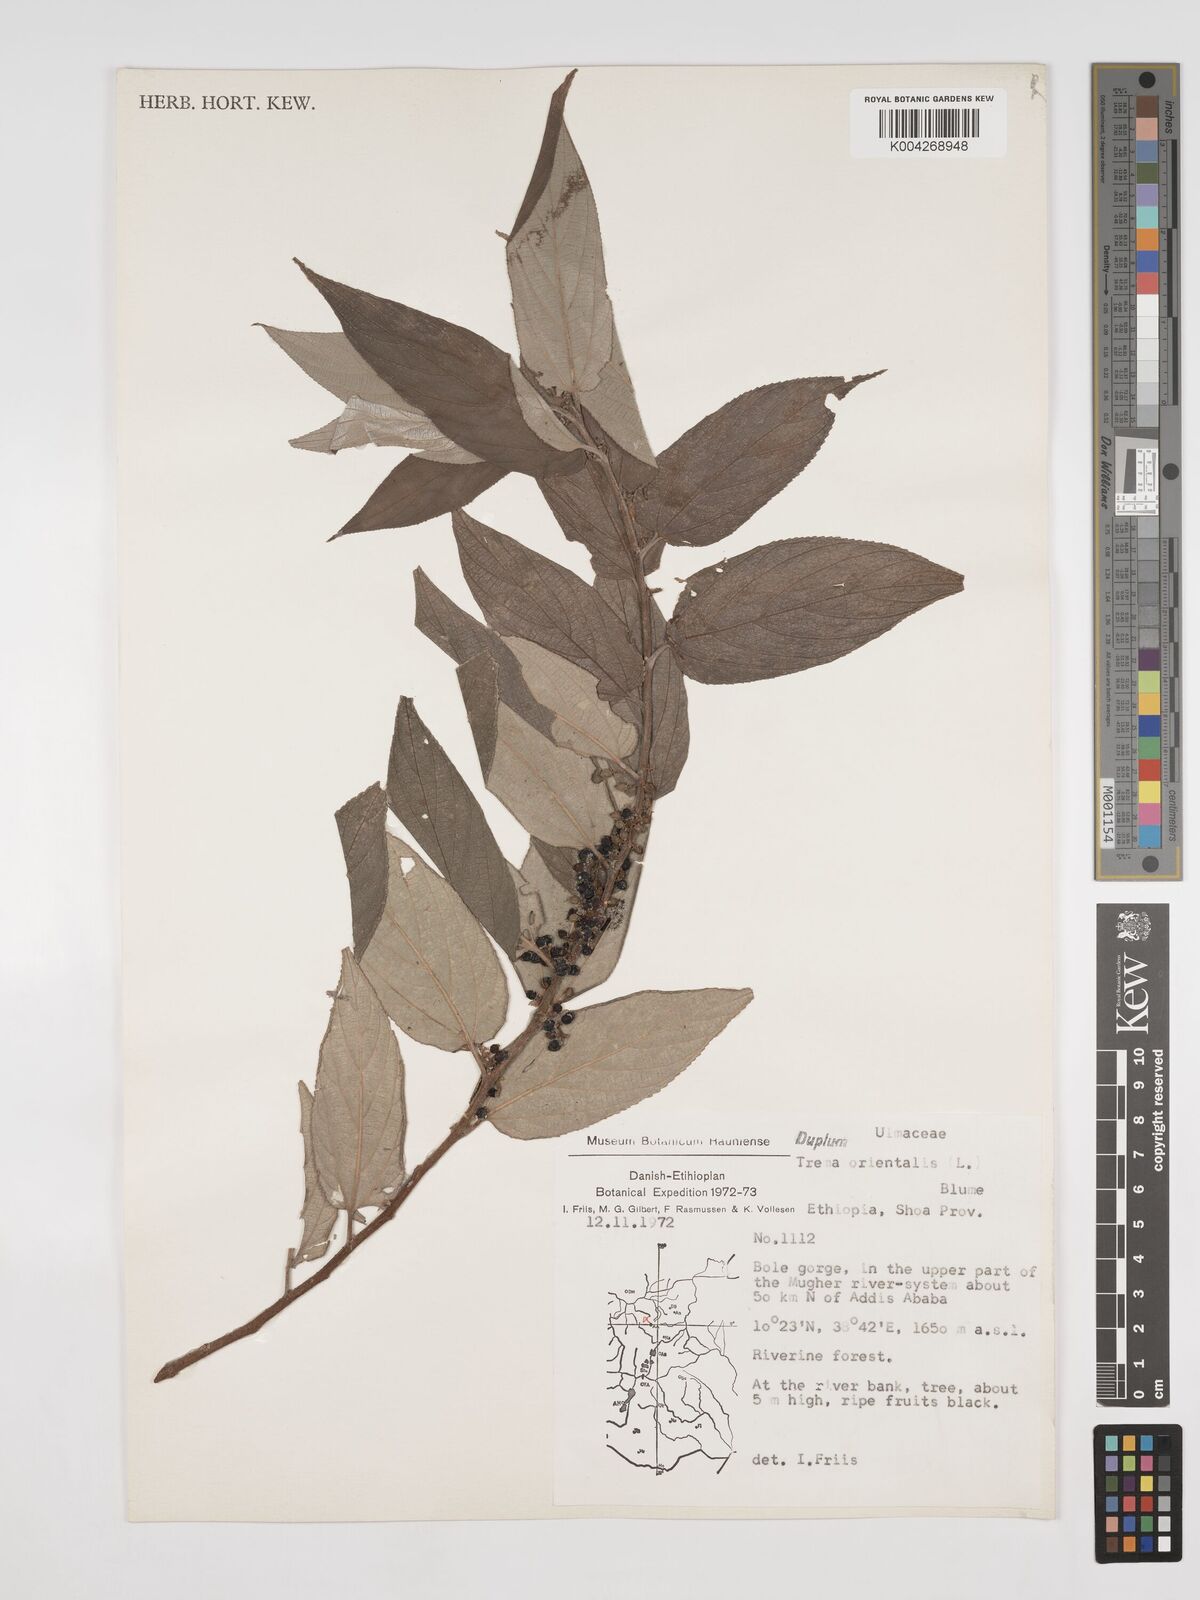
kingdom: Plantae
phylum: Tracheophyta
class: Magnoliopsida
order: Rosales
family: Cannabaceae
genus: Trema
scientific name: Trema orientale
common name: Indian charcoal tree
